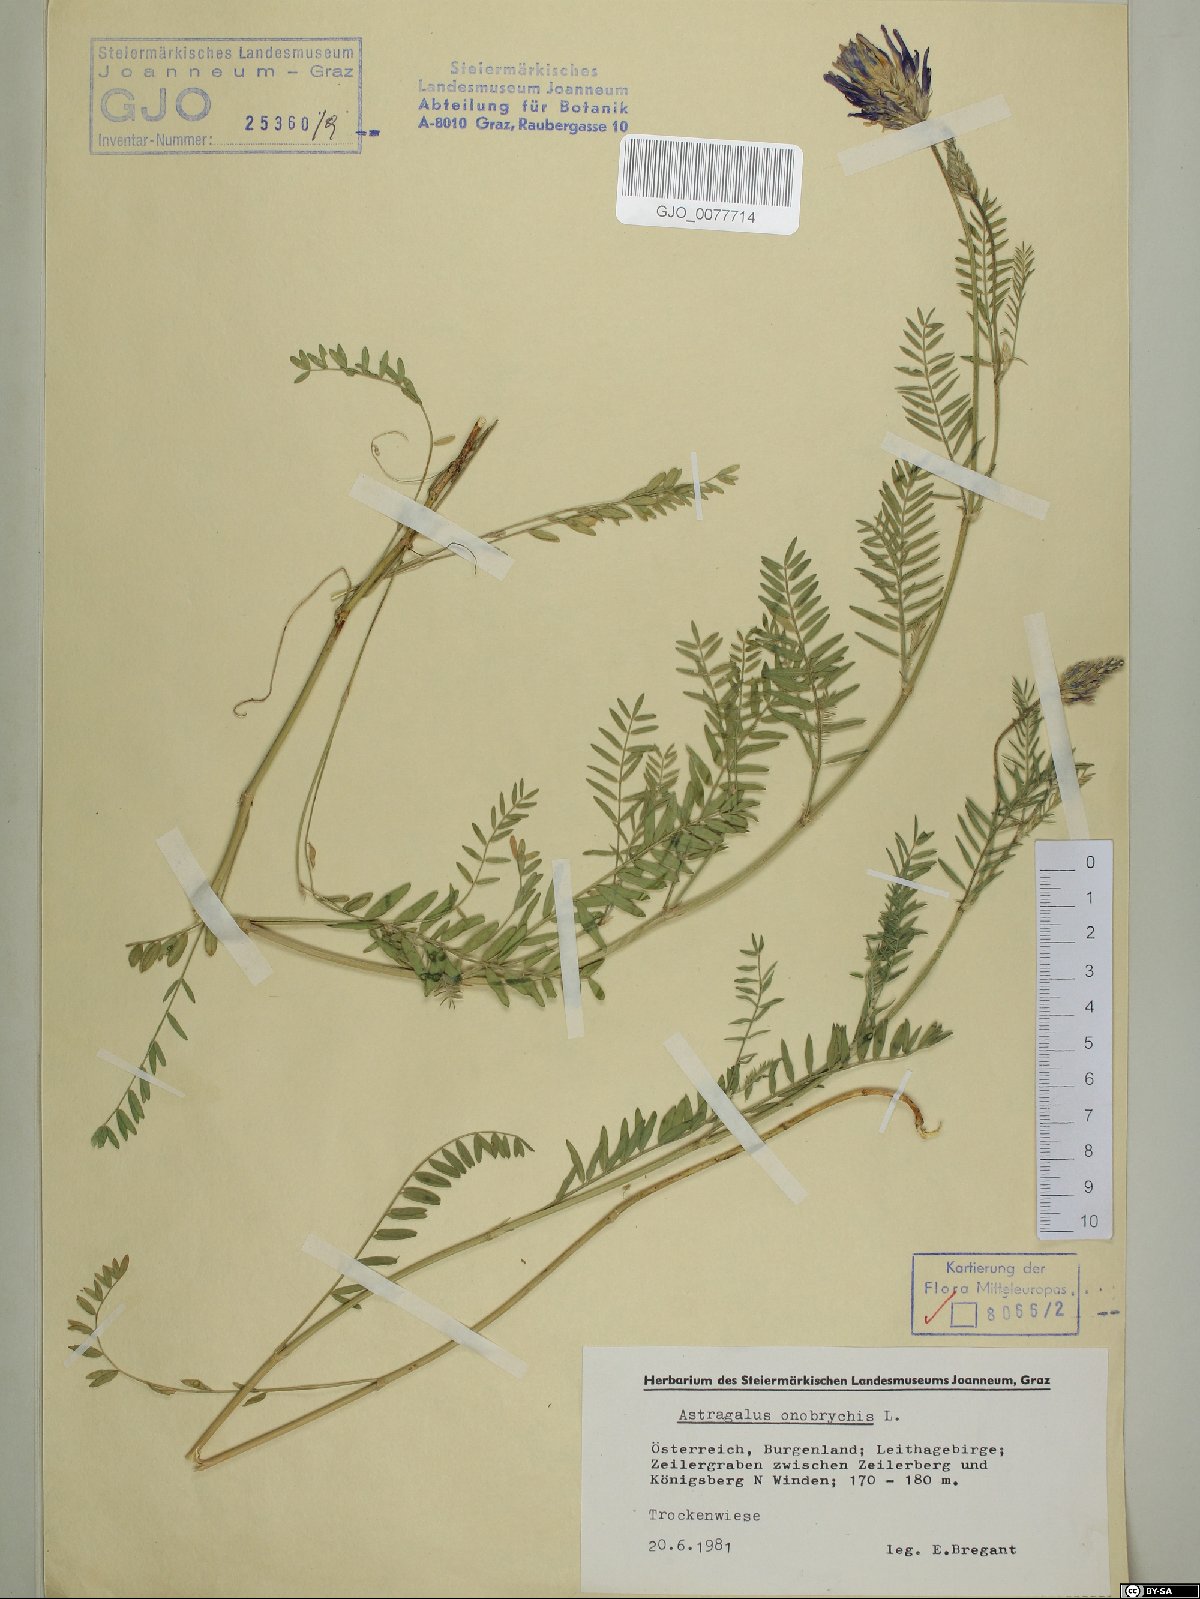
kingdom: Plantae
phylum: Tracheophyta
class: Magnoliopsida
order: Fabales
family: Fabaceae
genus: Astragalus
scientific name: Astragalus onobrychis
